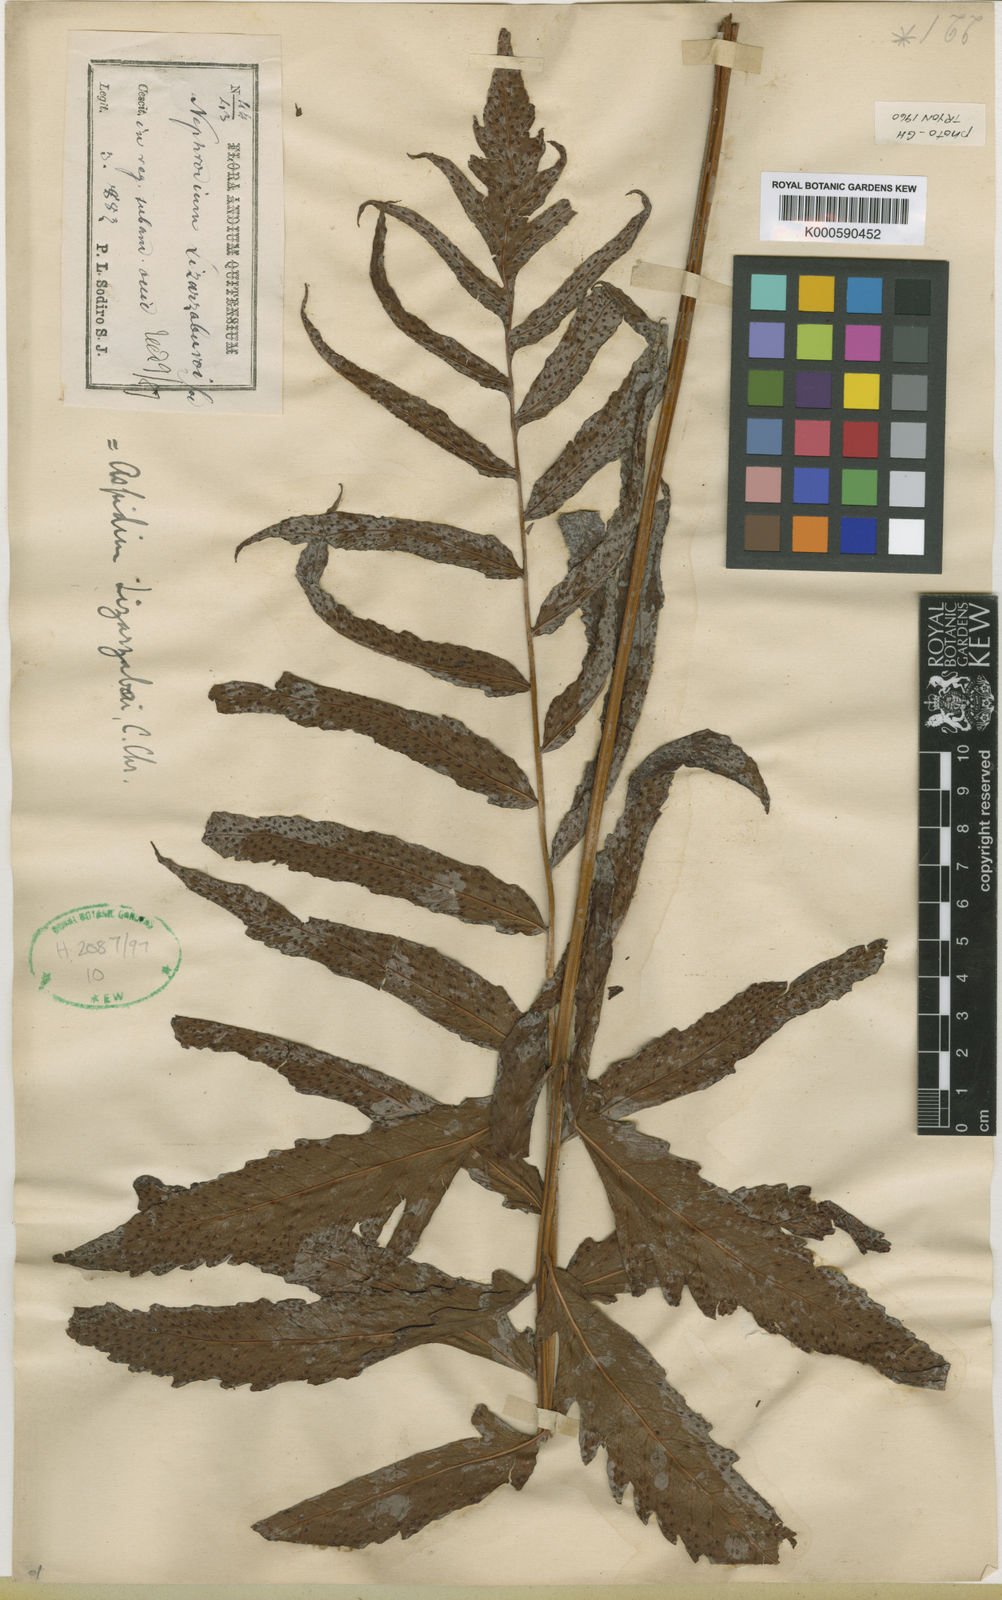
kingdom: Plantae
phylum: Tracheophyta
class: Polypodiopsida
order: Polypodiales
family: Tectariaceae
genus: Tectaria
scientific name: Tectaria incisa
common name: Incised halberd fern
